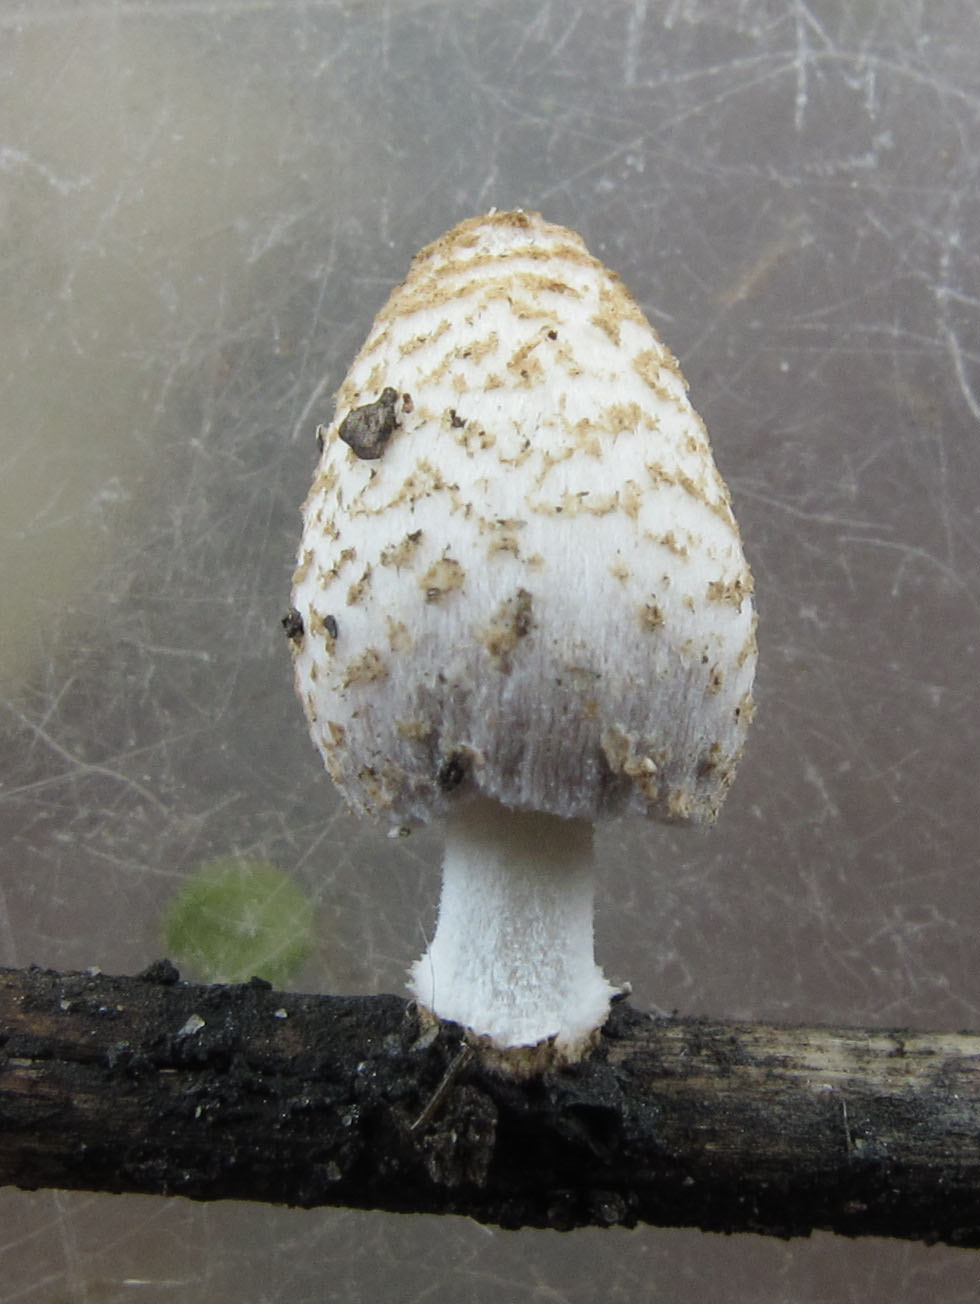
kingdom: Fungi
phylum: Basidiomycota
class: Agaricomycetes
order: Agaricales
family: Psathyrellaceae
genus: Coprinopsis
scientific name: Coprinopsis pseudofriesii
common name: gulfnugget blækhat
